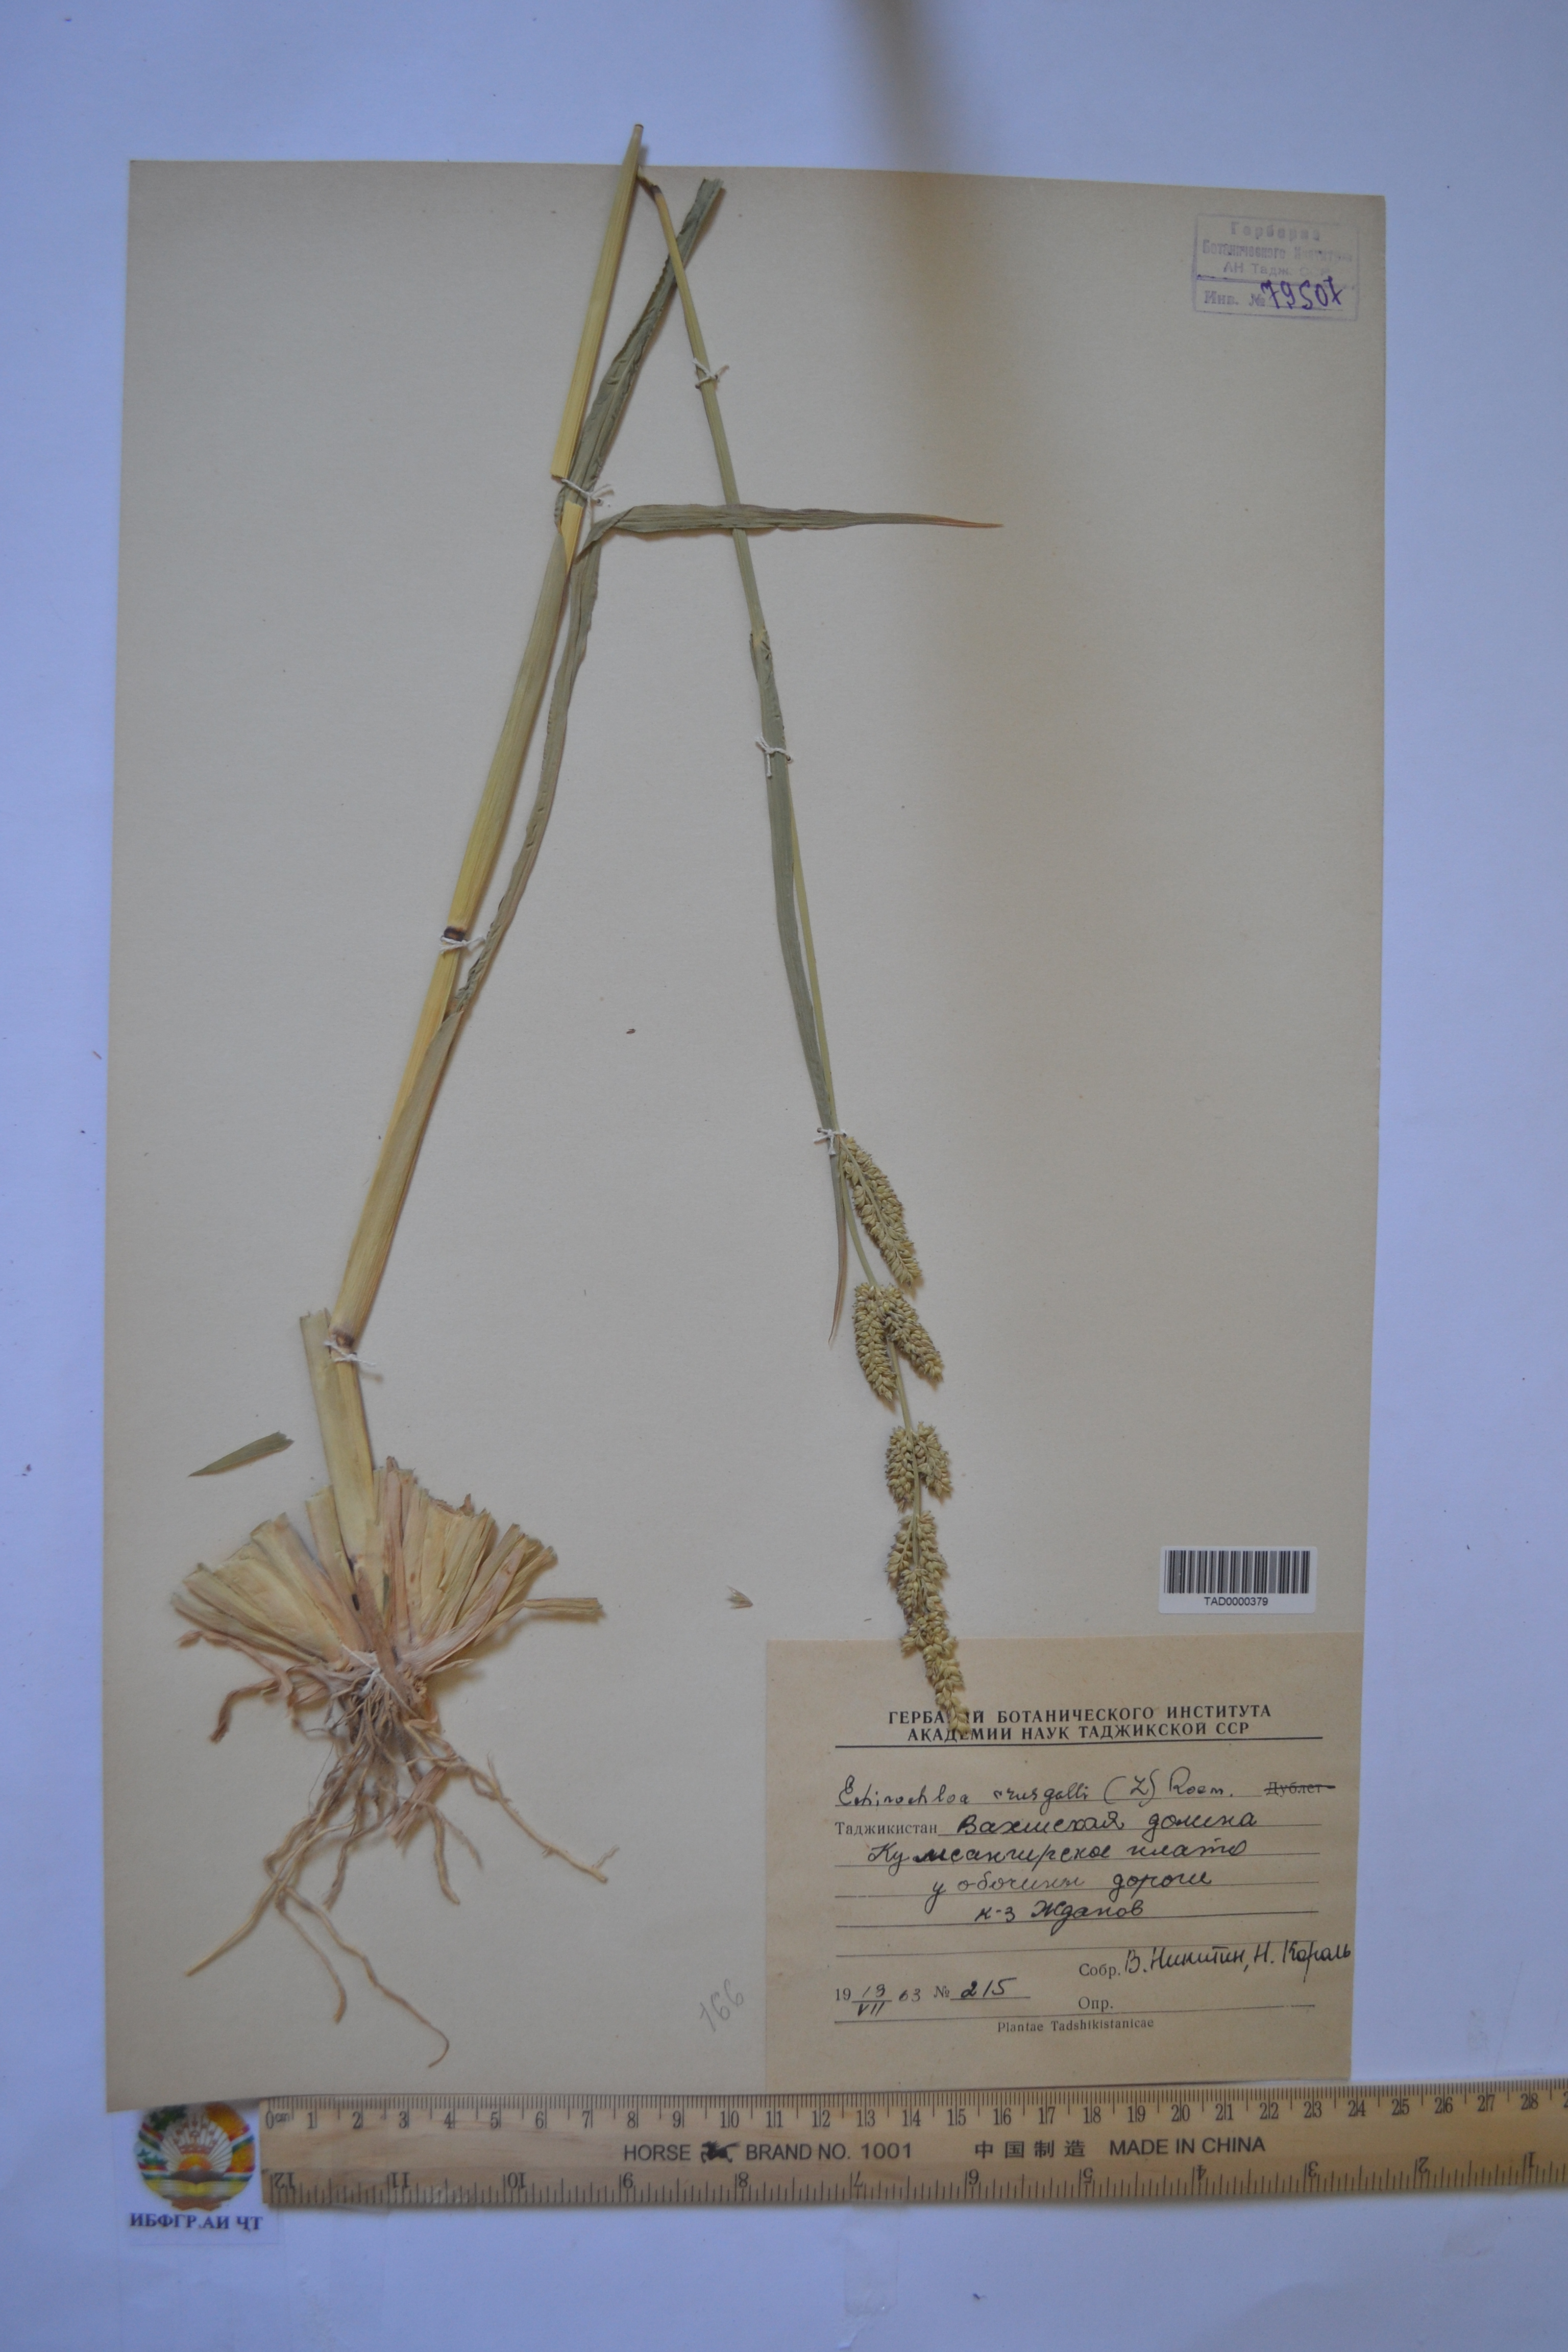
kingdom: Plantae
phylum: Tracheophyta
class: Liliopsida
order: Poales
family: Poaceae
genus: Echinochloa
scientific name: Echinochloa crus-galli
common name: Cockspur
